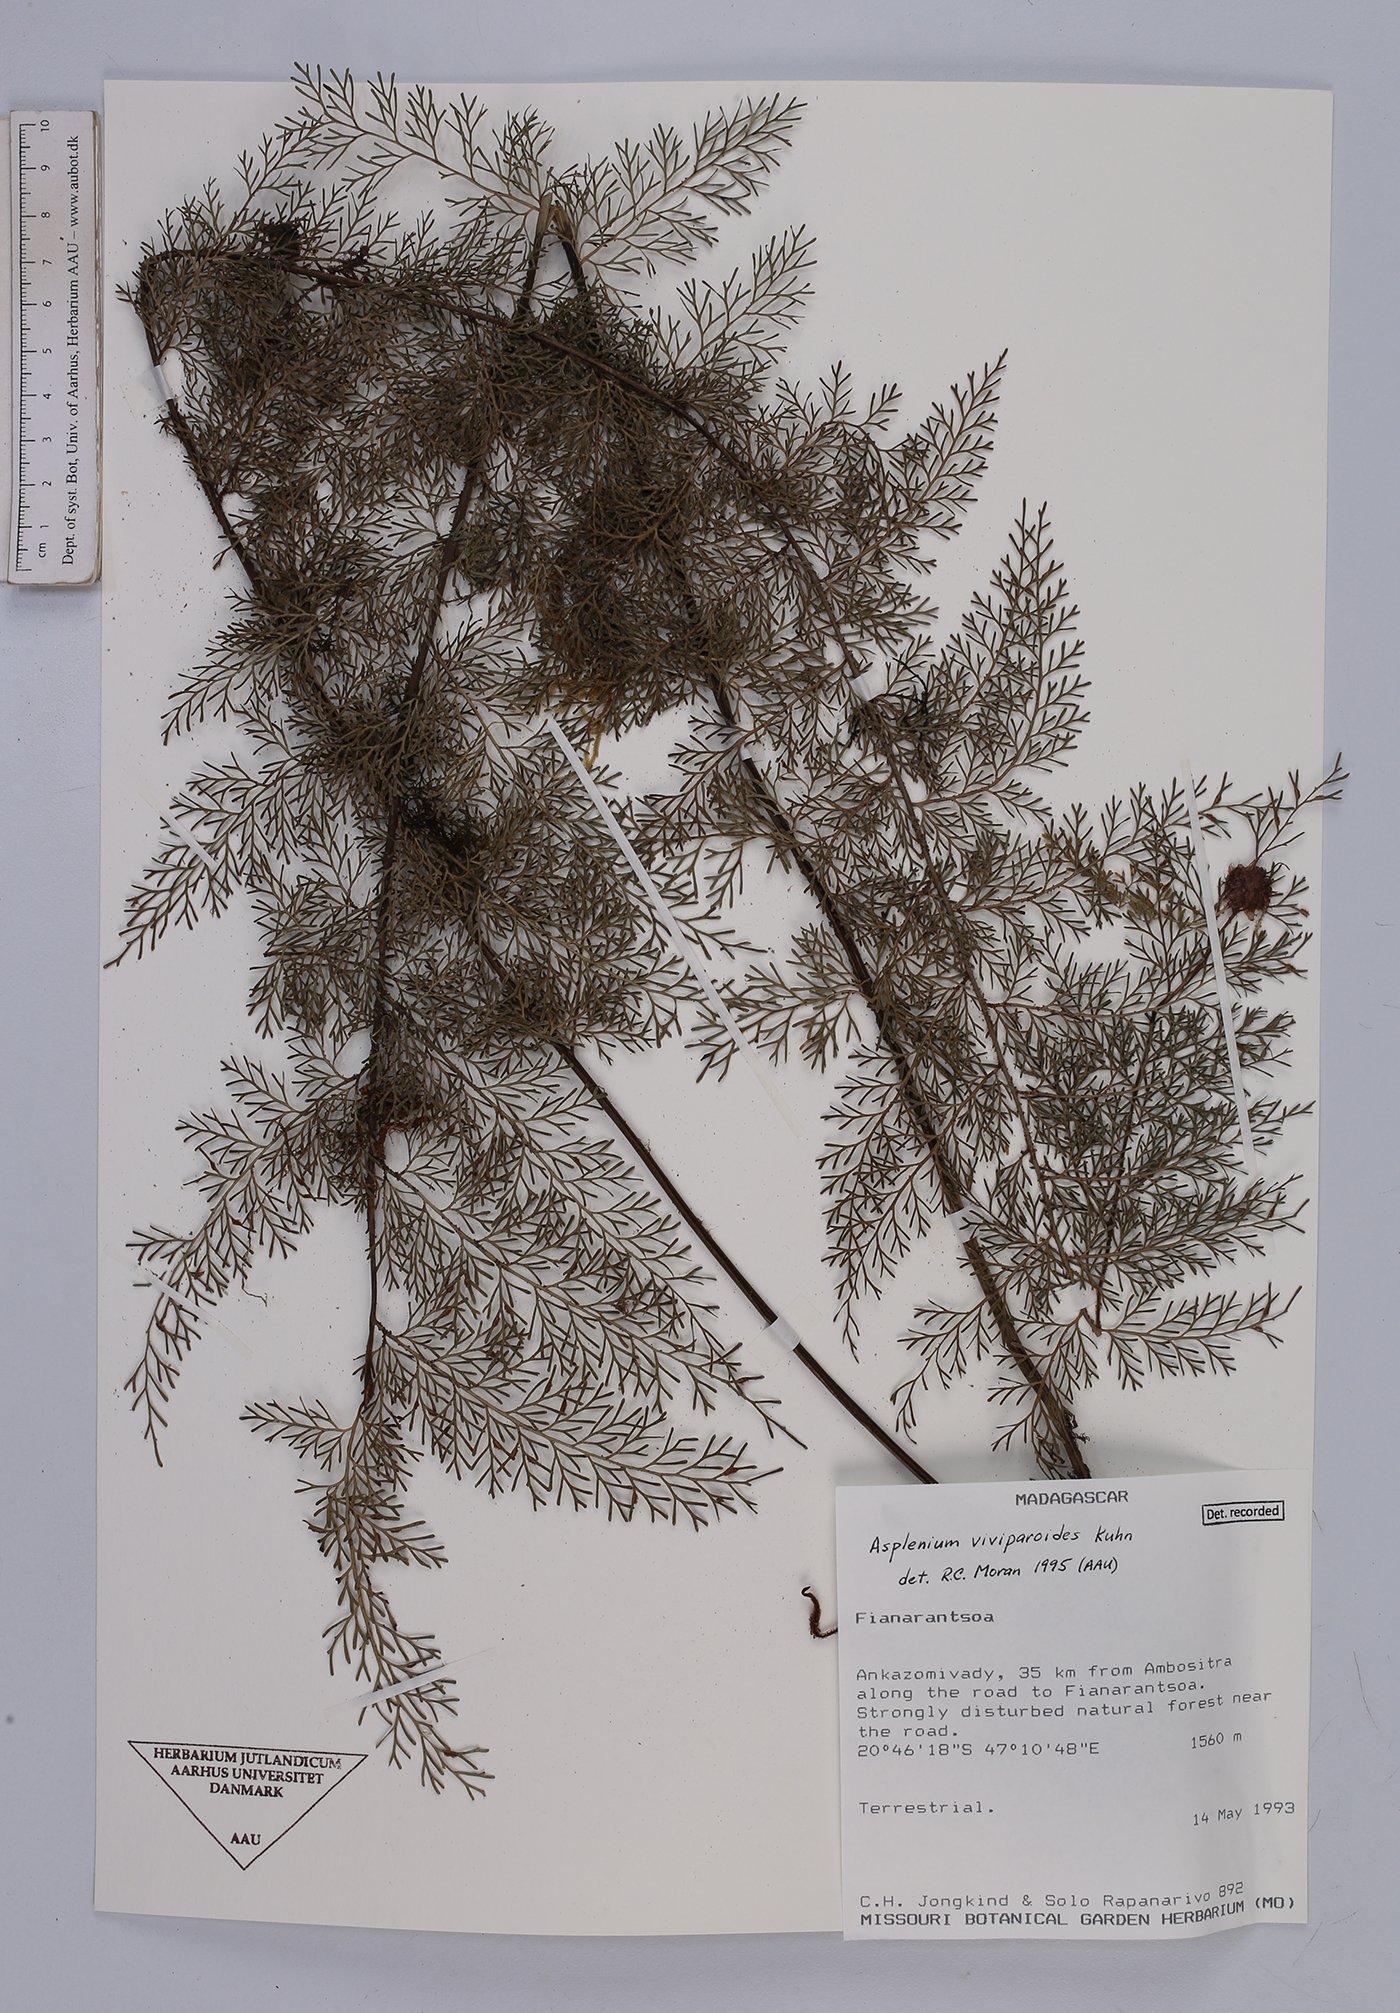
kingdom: Plantae
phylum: Tracheophyta
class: Polypodiopsida
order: Polypodiales
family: Aspleniaceae
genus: Asplenium
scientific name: Asplenium viviparioides
